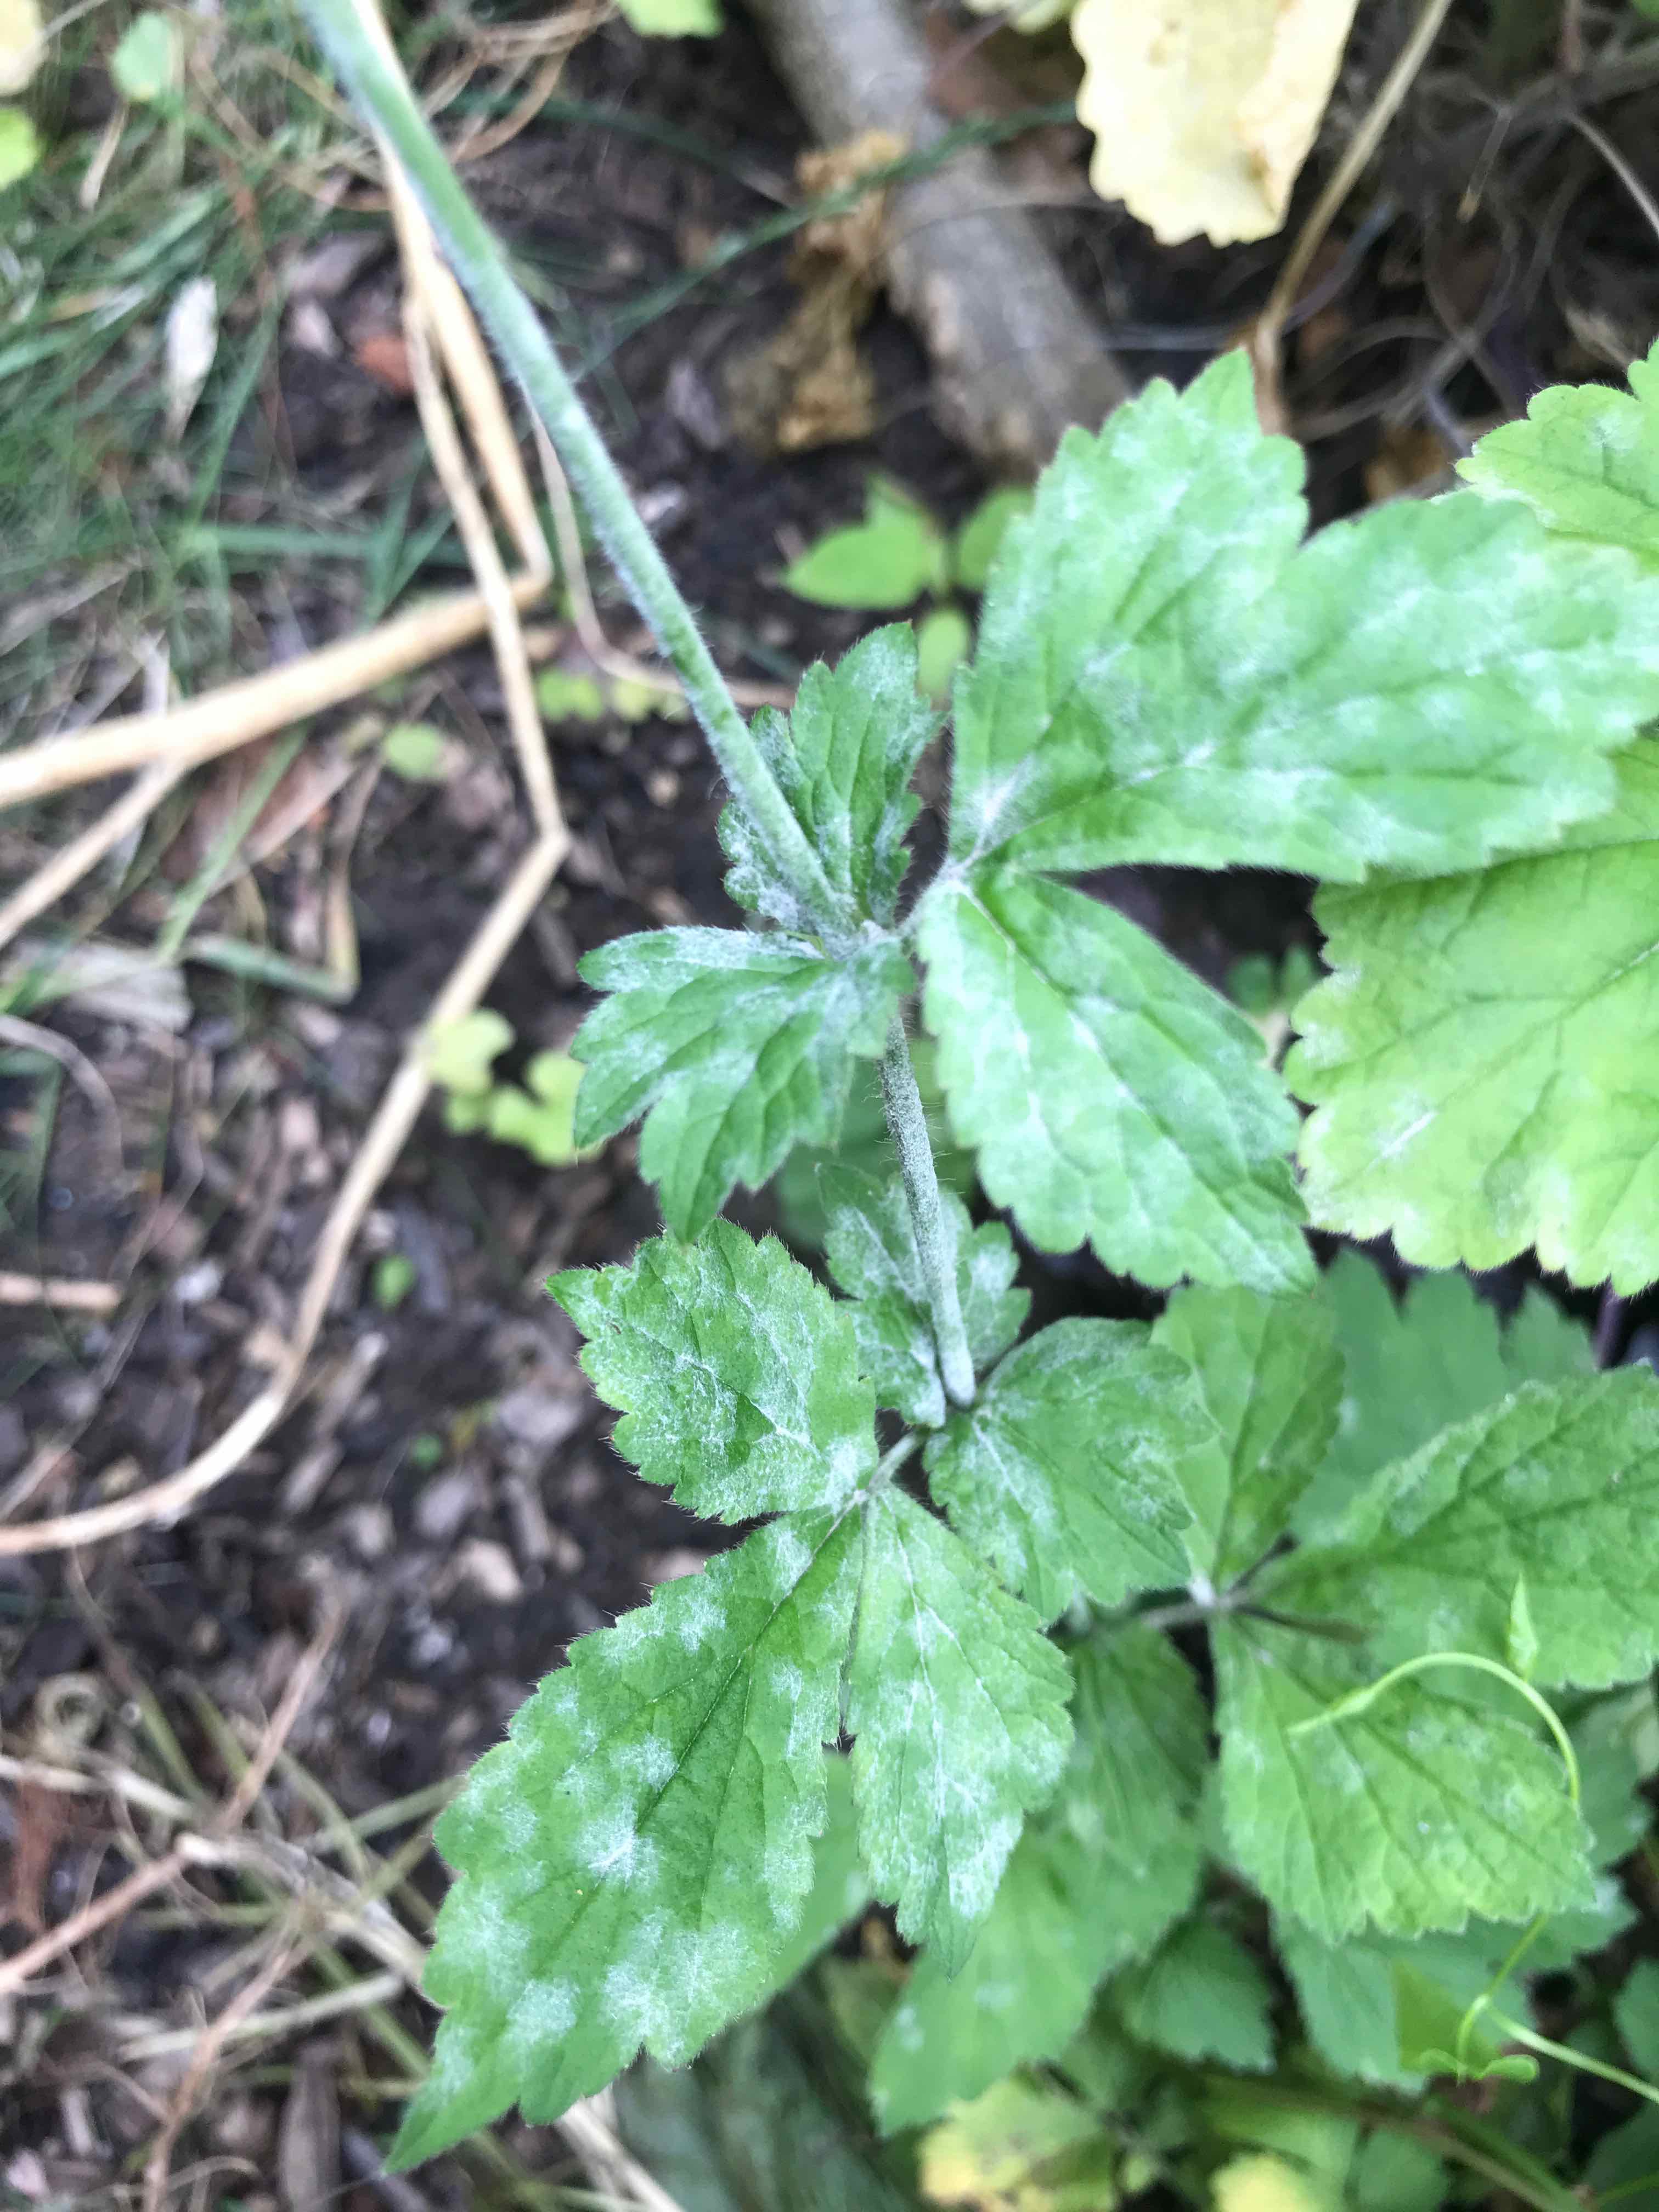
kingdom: Fungi
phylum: Ascomycota
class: Leotiomycetes
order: Helotiales
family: Erysiphaceae
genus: Podosphaera
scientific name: Podosphaera aphanis
